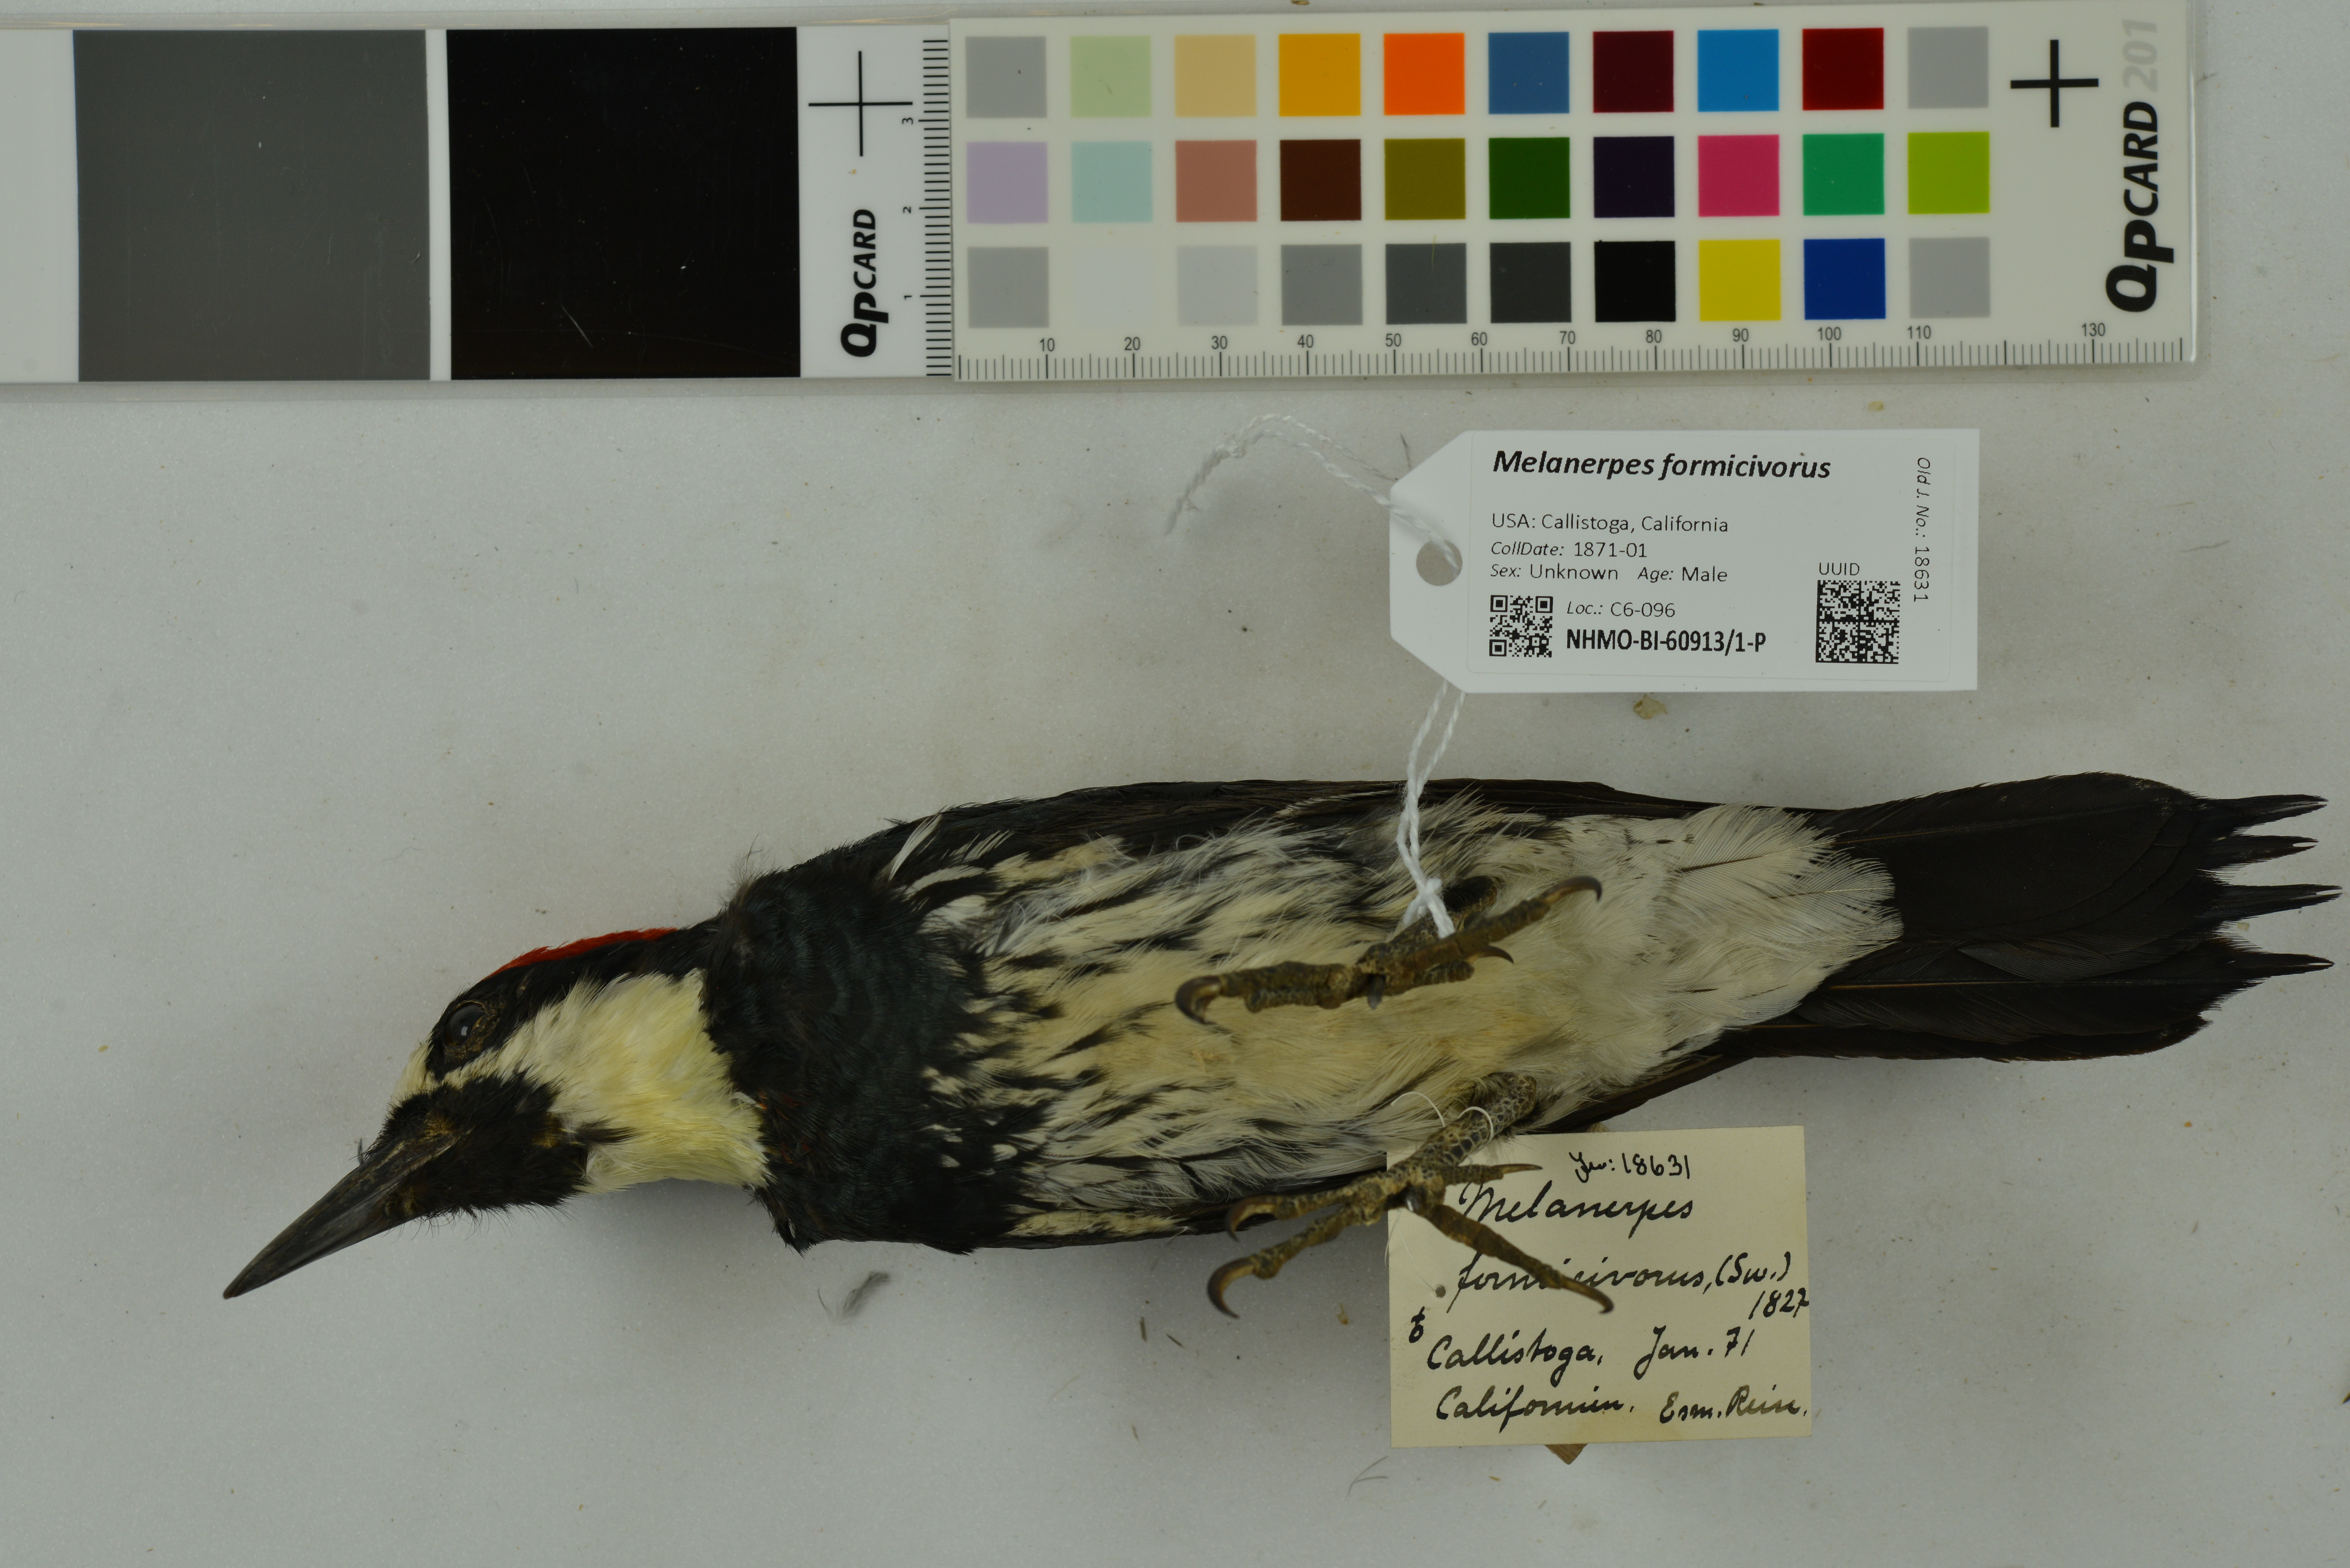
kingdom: Animalia
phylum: Chordata
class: Aves
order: Piciformes
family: Picidae
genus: Melanerpes
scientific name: Melanerpes formicivorus
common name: Acorn woodpecker
